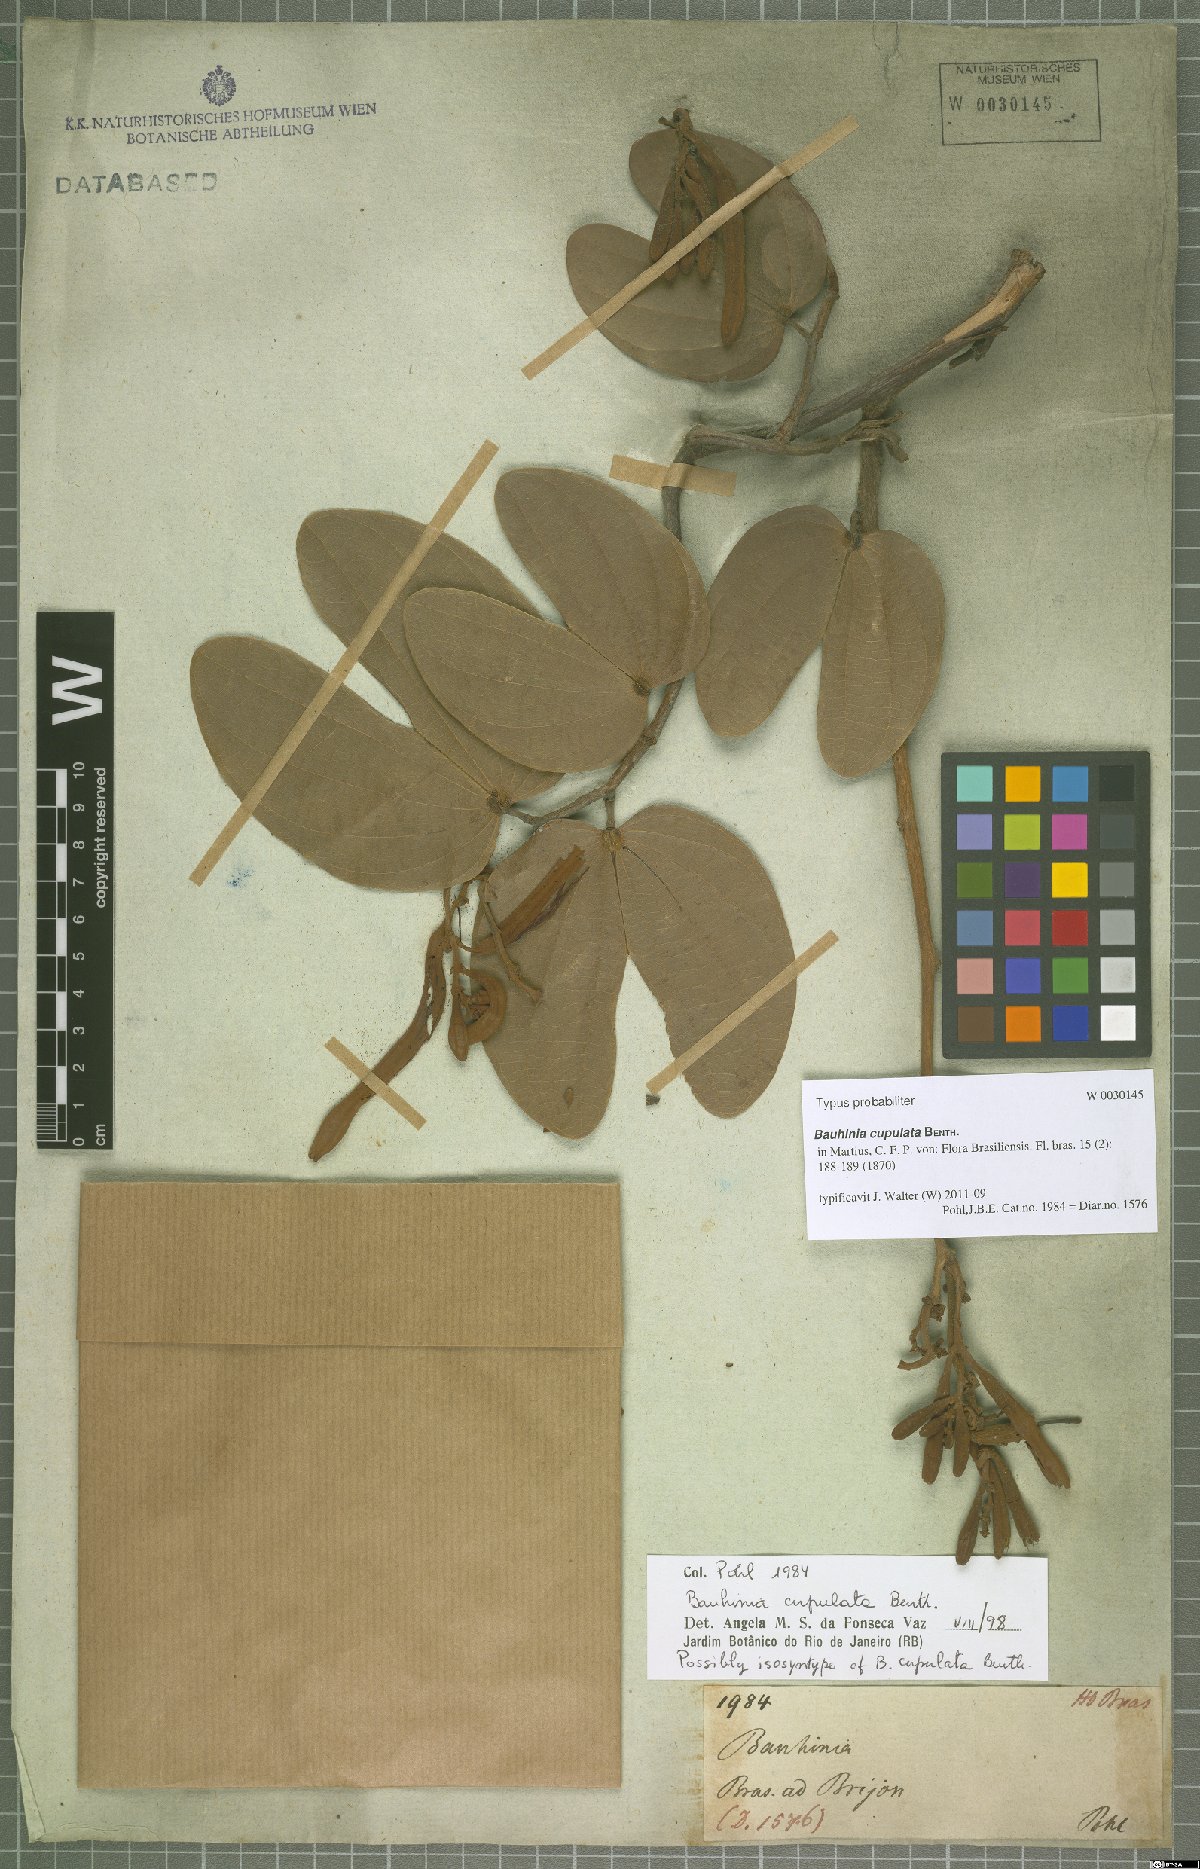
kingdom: Plantae
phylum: Tracheophyta
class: Magnoliopsida
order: Fabales
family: Fabaceae
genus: Bauhinia
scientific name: Bauhinia cupulata
